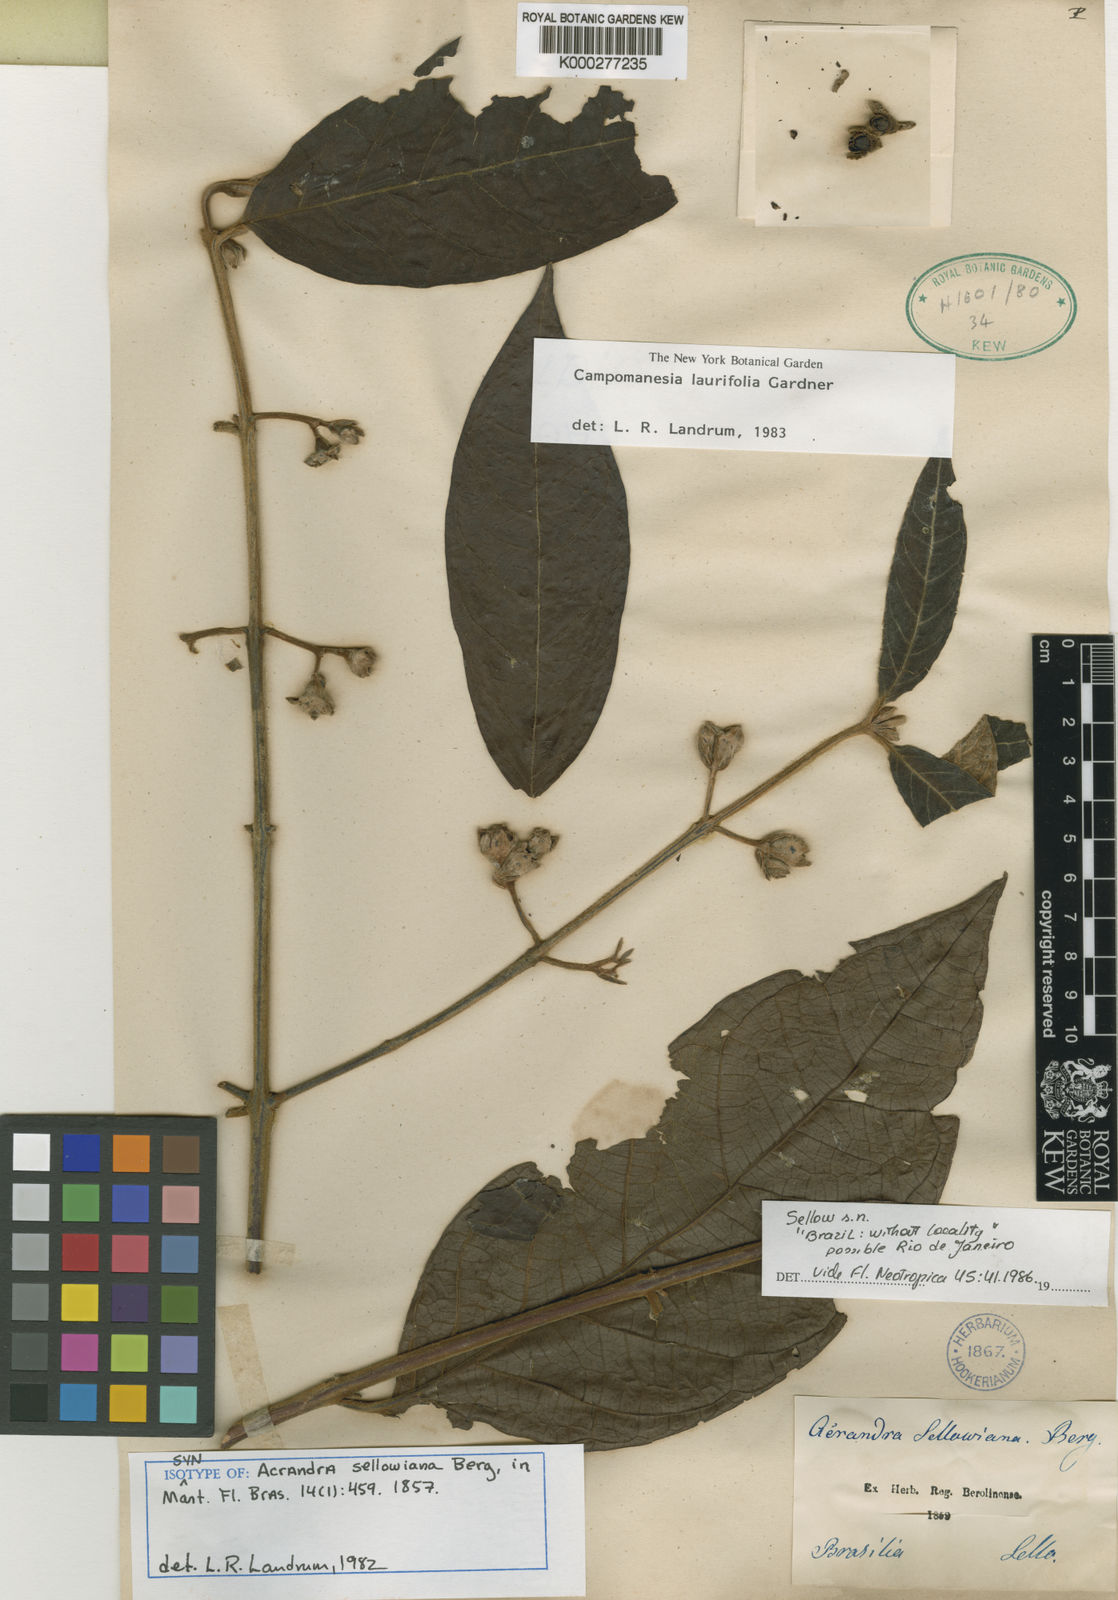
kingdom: Plantae
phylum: Tracheophyta
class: Magnoliopsida
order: Myrtales
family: Myrtaceae
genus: Campomanesia
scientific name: Campomanesia laurifolia
